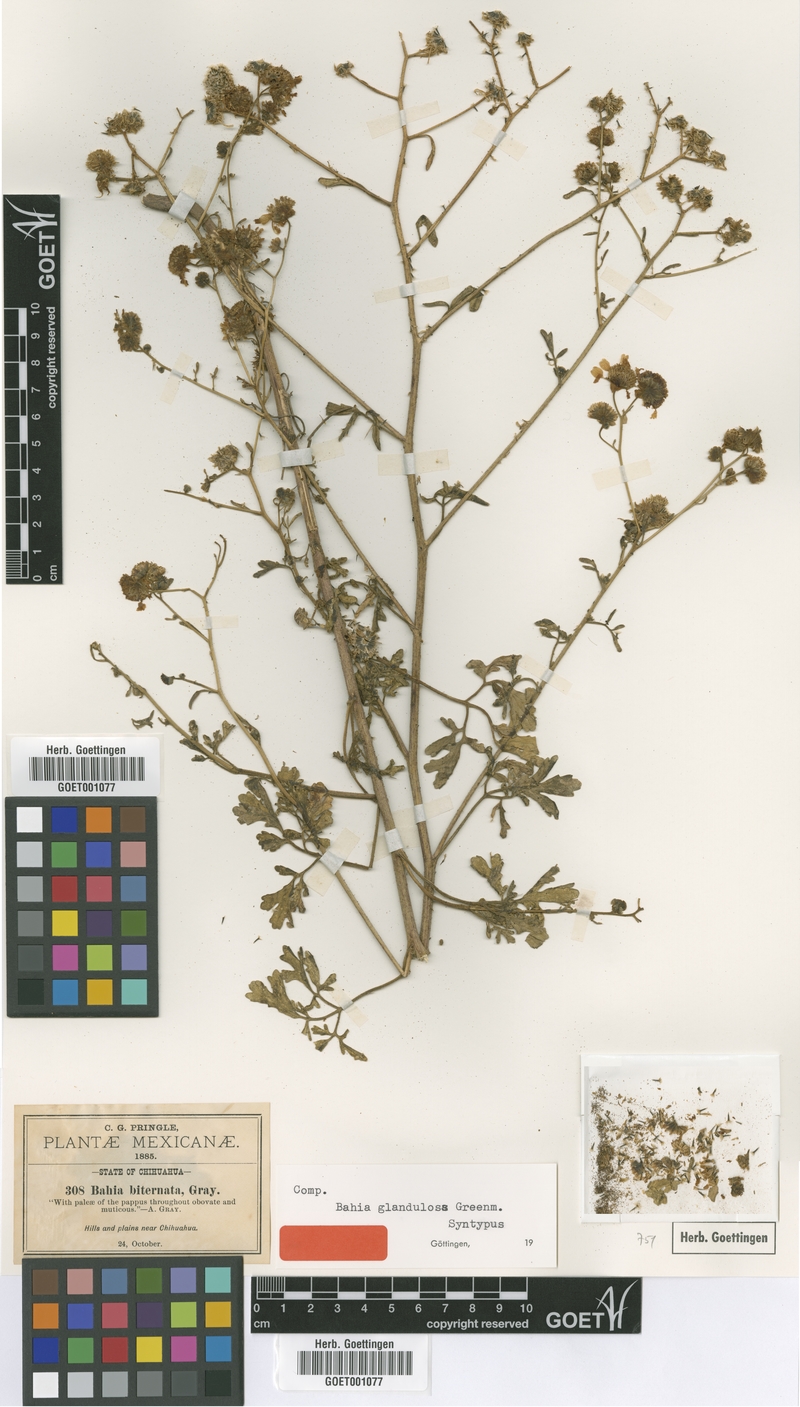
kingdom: Plantae
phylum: Tracheophyta
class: Magnoliopsida
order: Asterales
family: Asteraceae
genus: Hymenothrix
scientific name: Hymenothrix glandulopubescens
